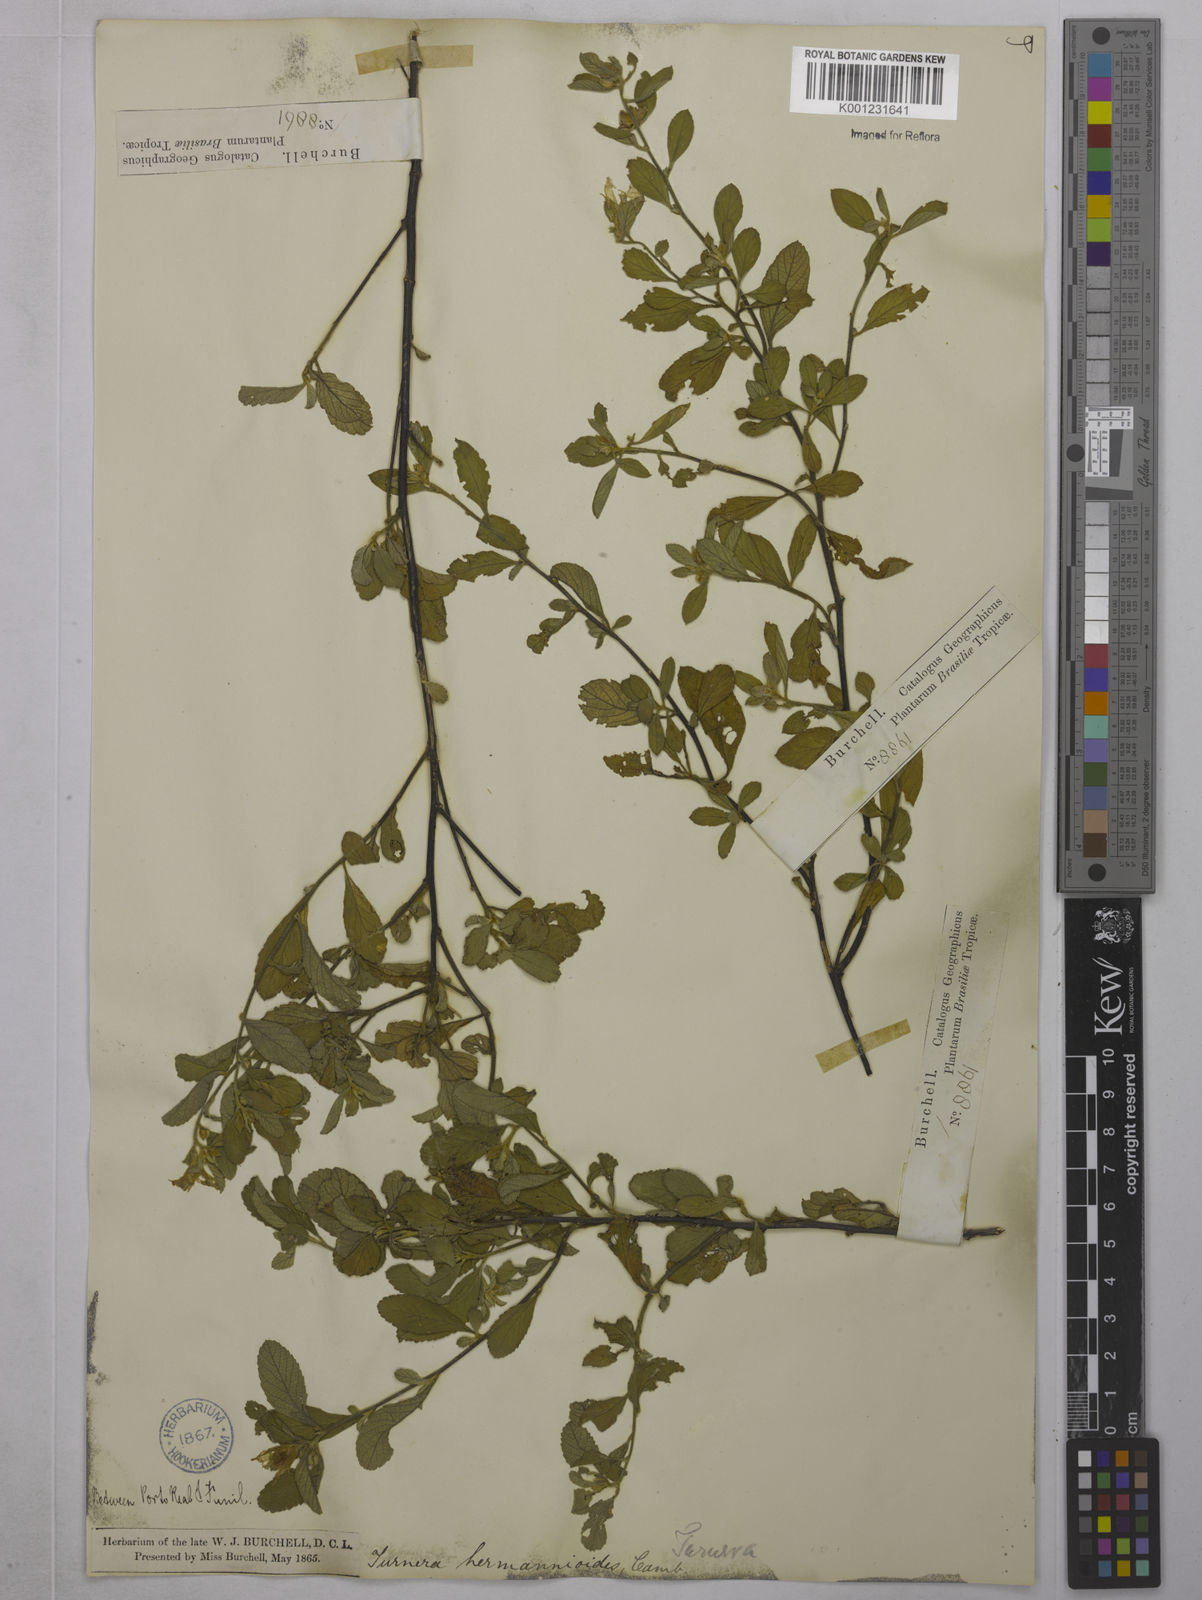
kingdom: Plantae
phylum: Tracheophyta
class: Magnoliopsida
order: Malpighiales
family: Turneraceae
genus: Turnera
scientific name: Turnera hermannioides
